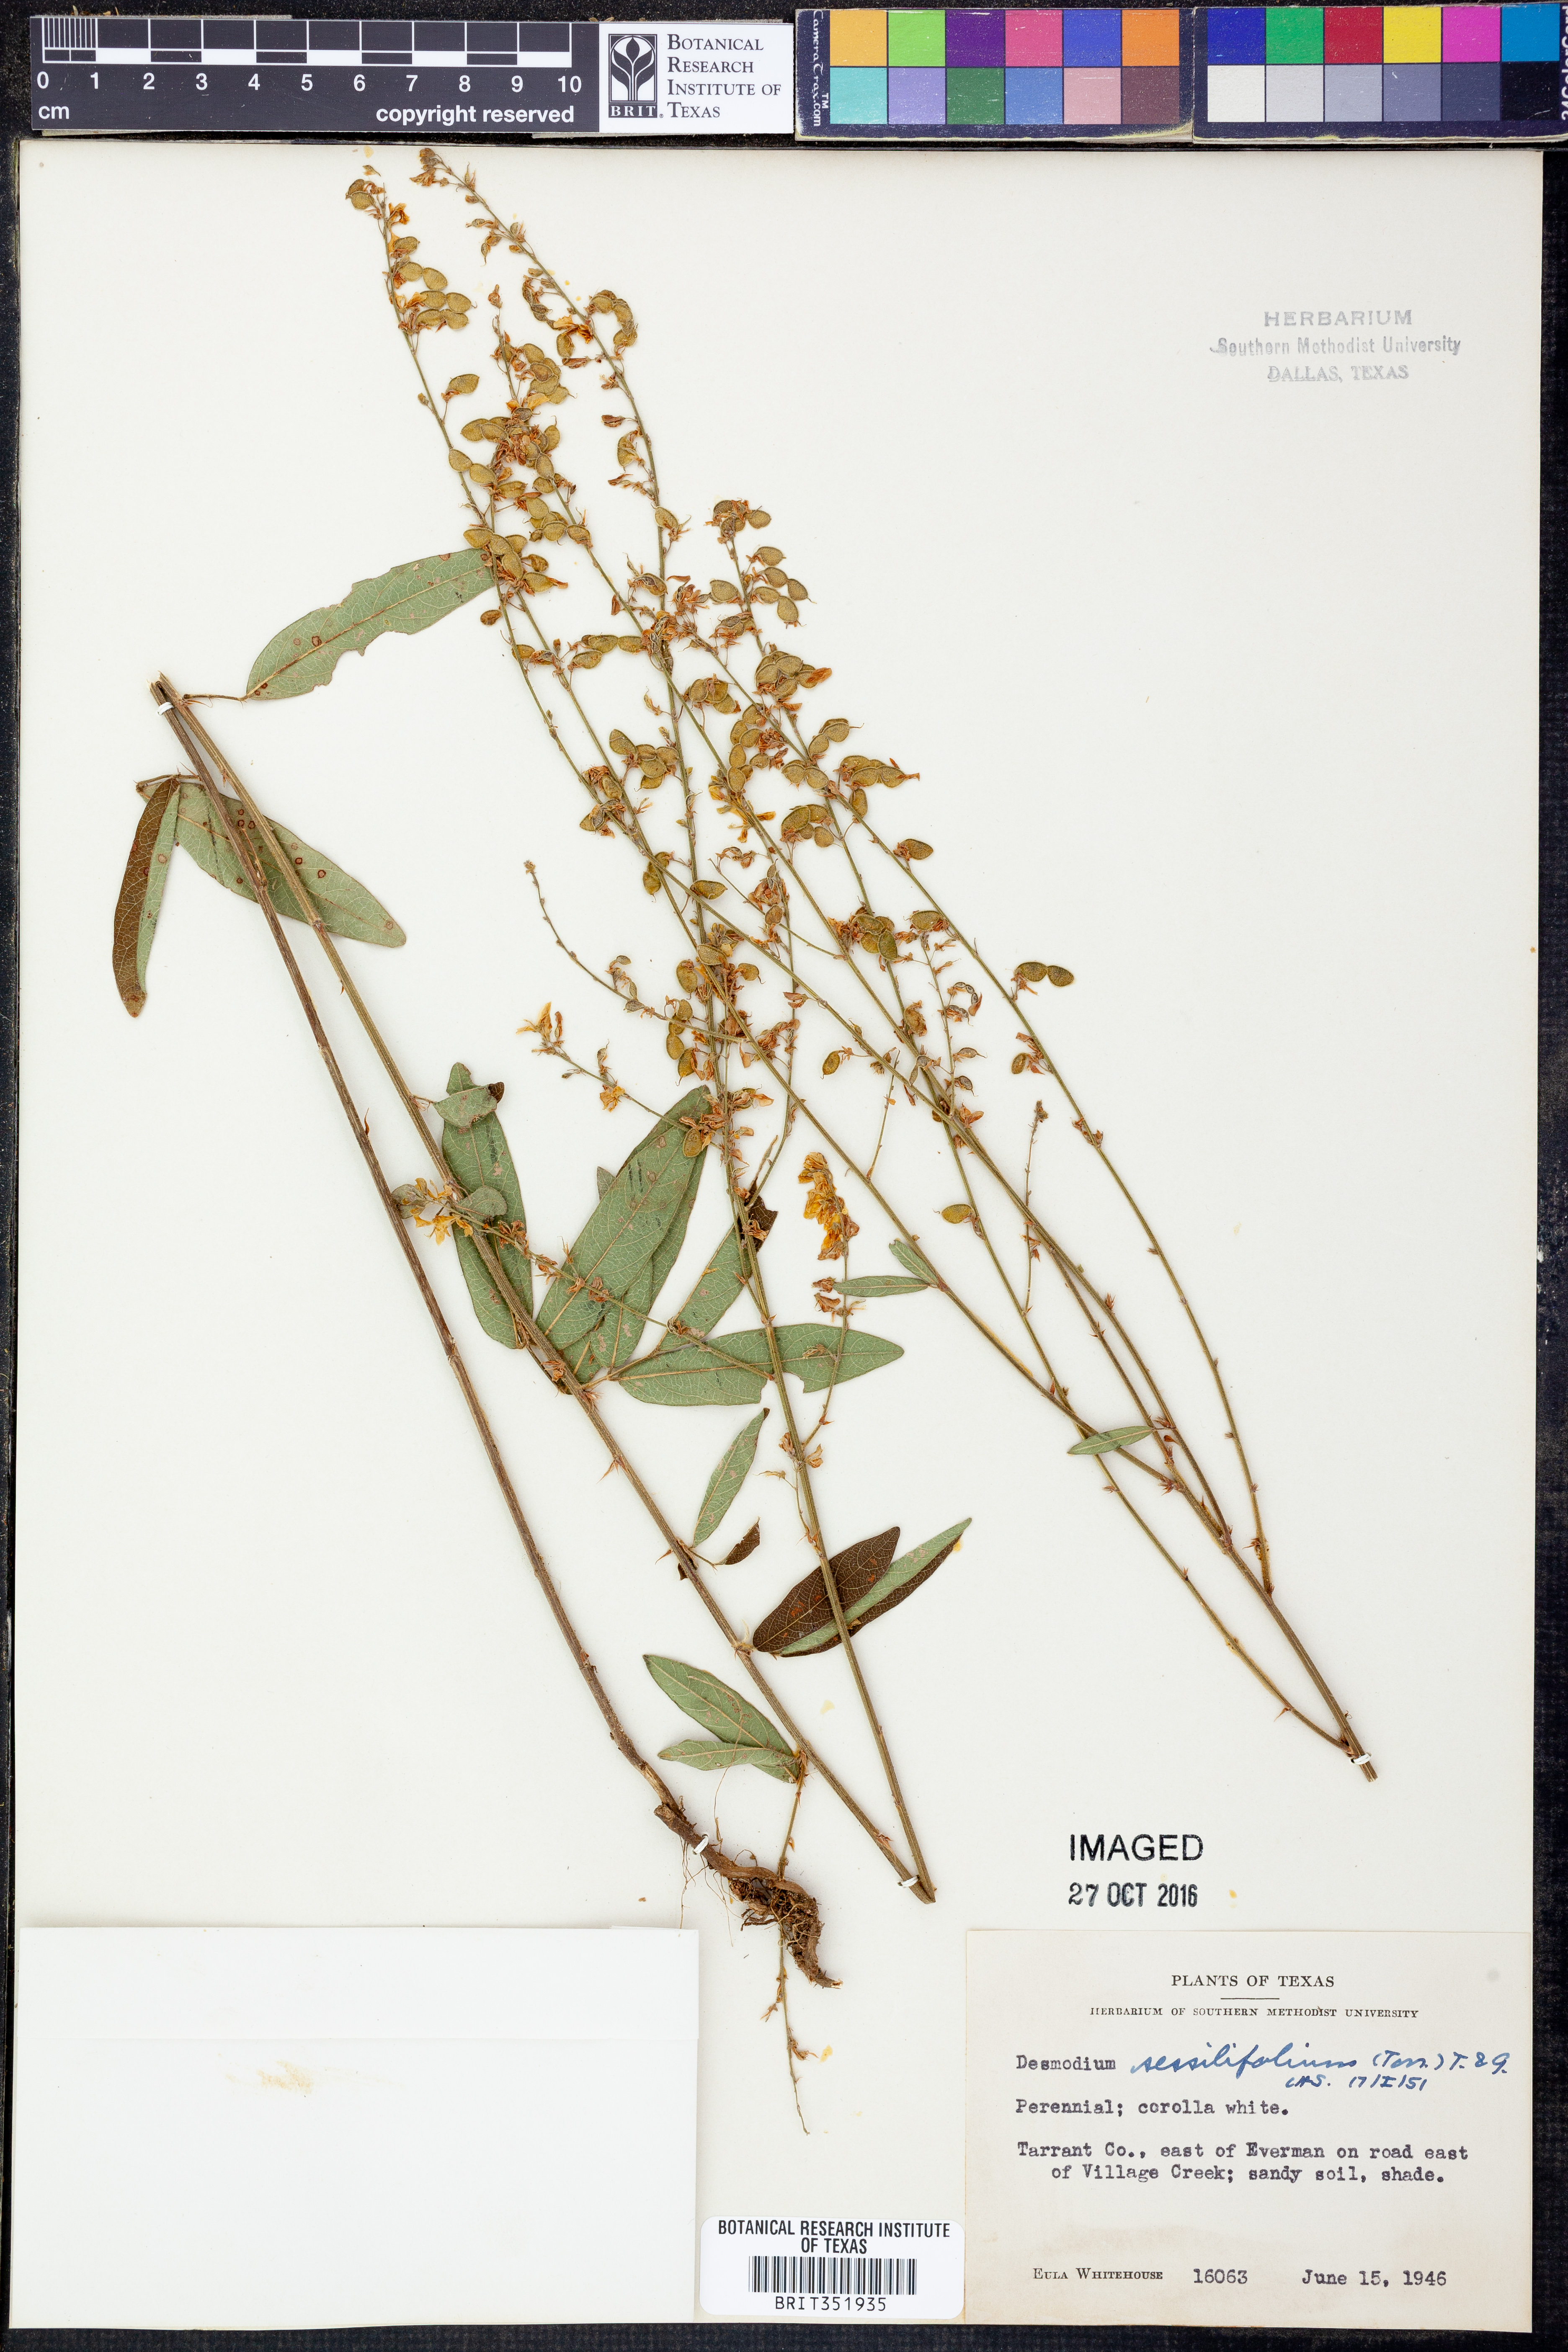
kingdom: Plantae
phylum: Tracheophyta
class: Magnoliopsida
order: Fabales
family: Fabaceae
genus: Desmodium
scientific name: Desmodium sessilifolium
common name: Sessile tick-clover
